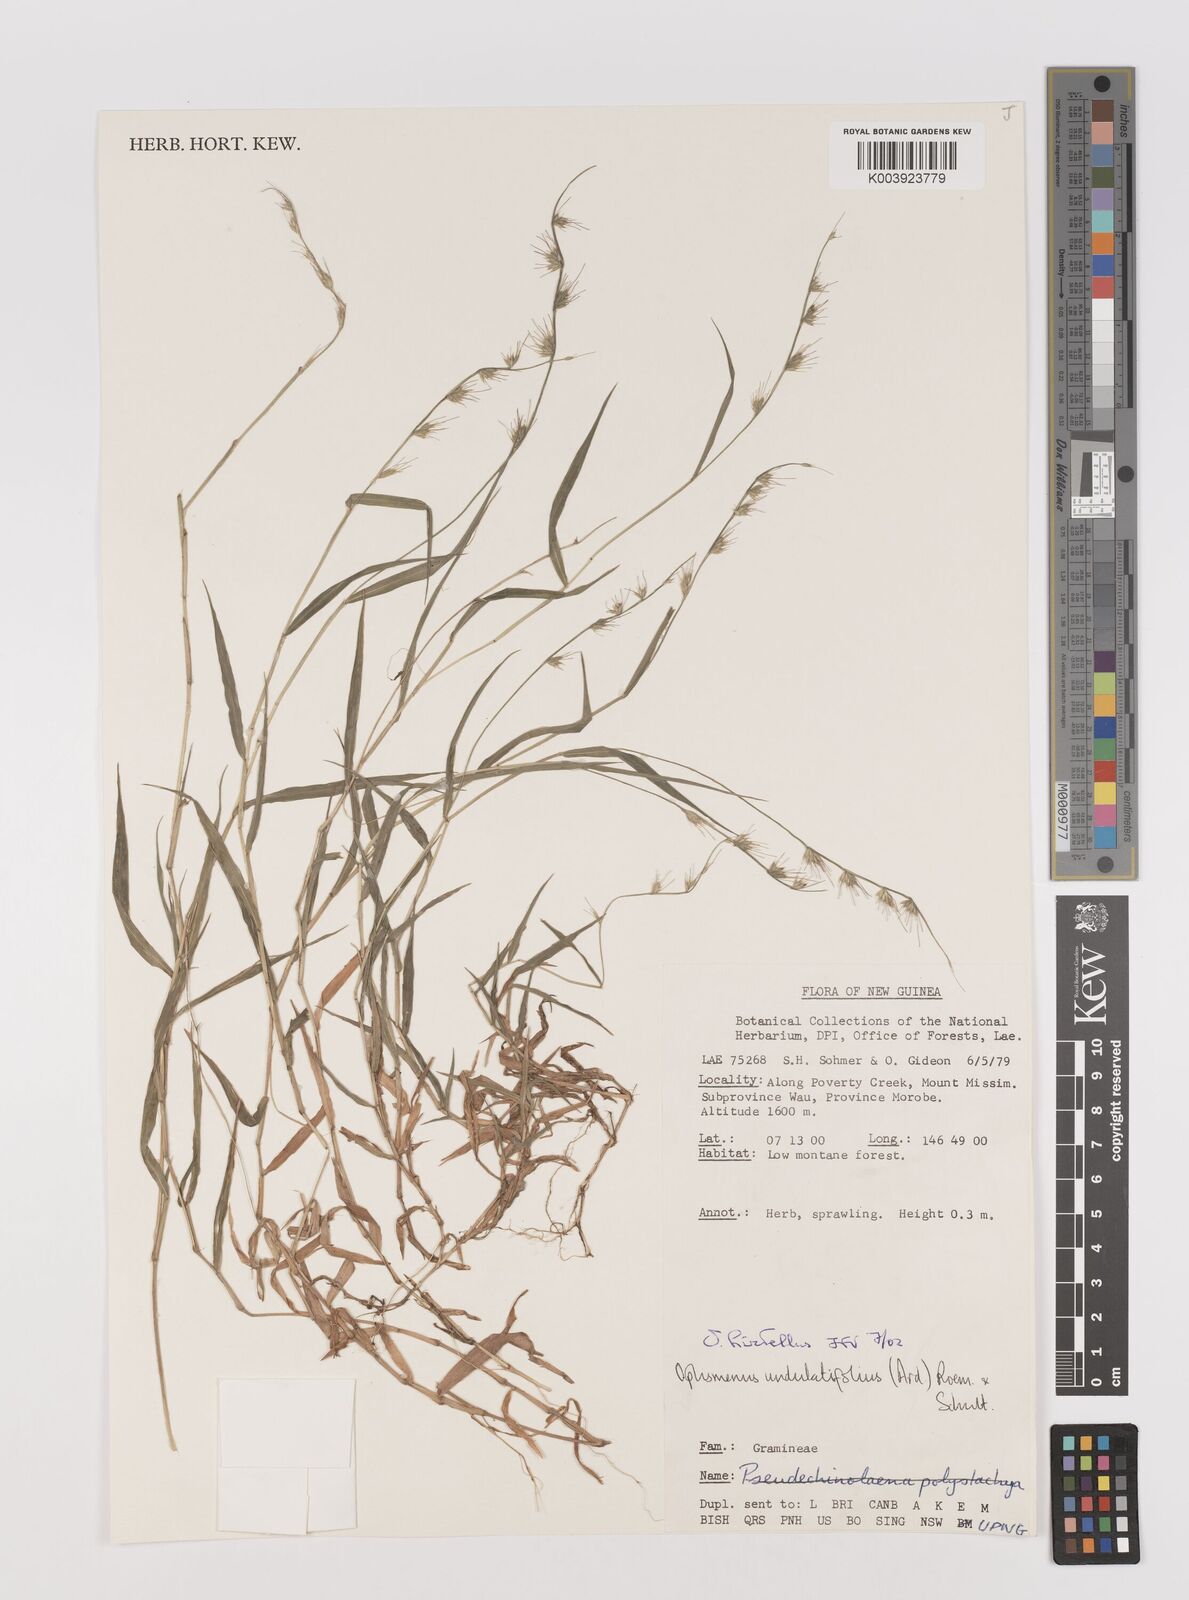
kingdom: Plantae
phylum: Tracheophyta
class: Liliopsida
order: Poales
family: Poaceae
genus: Oplismenus
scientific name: Oplismenus hirtellus
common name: Basketgrass
